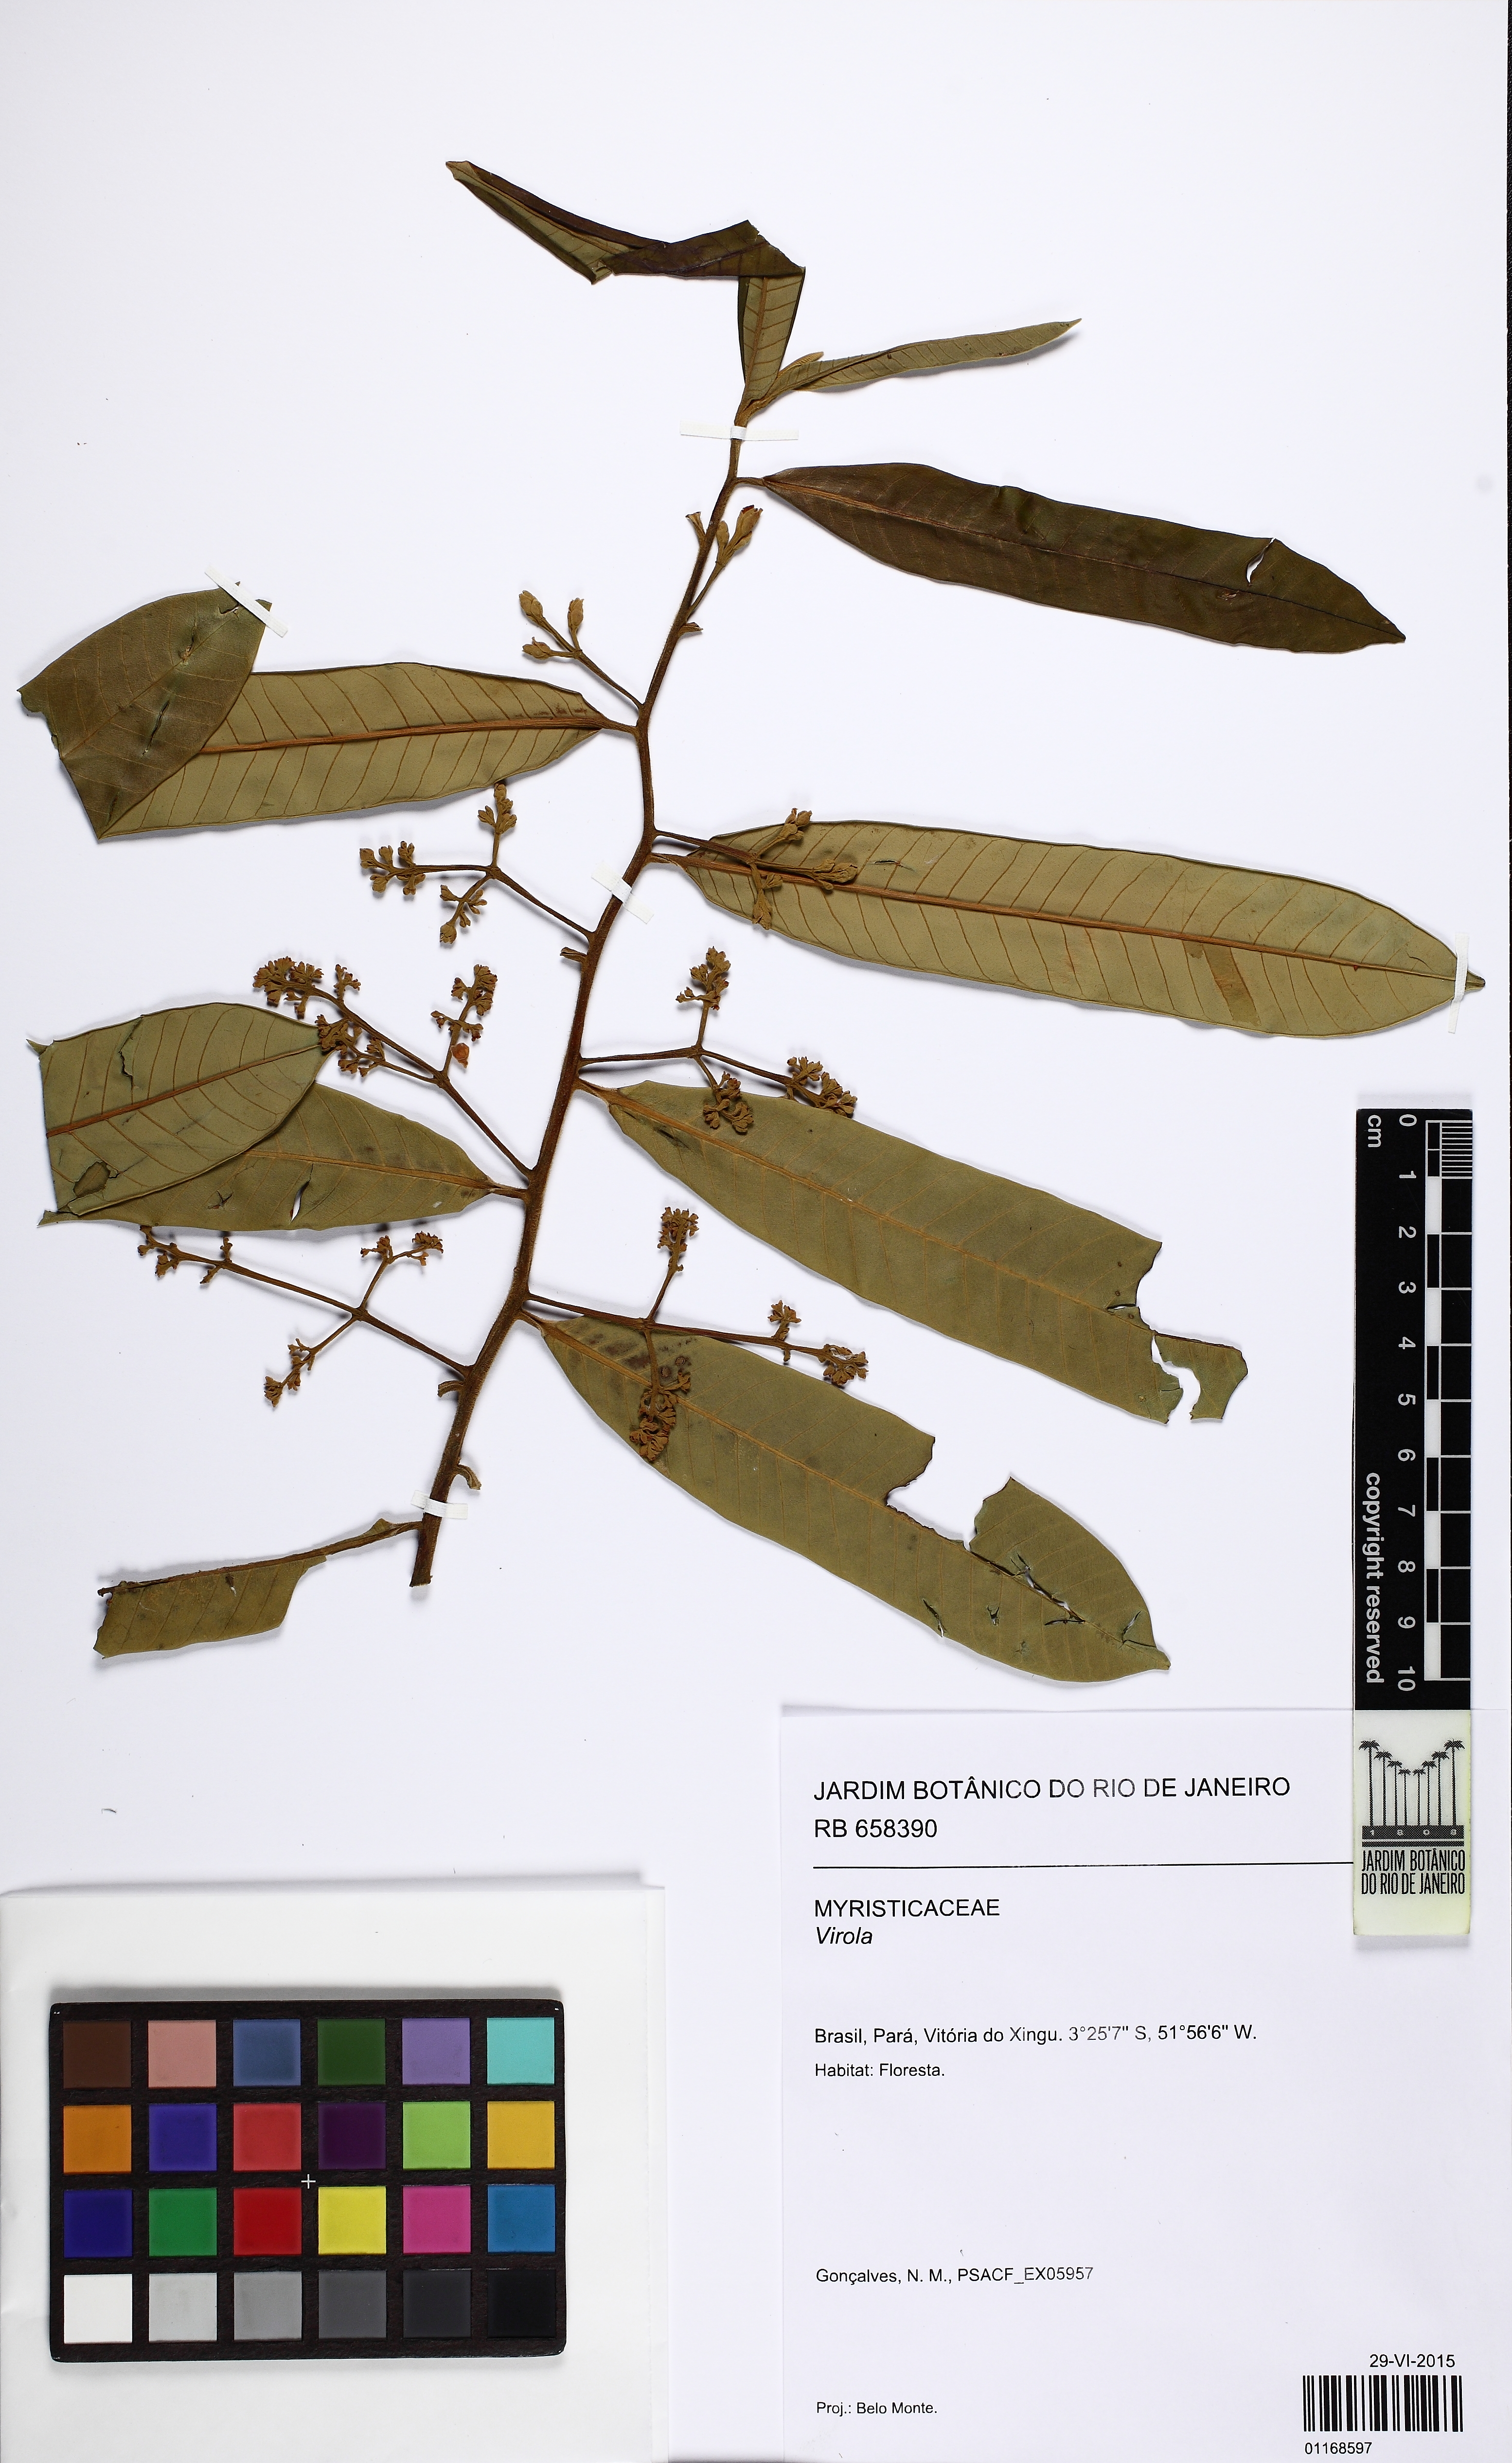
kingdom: Plantae
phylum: Tracheophyta
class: Magnoliopsida
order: Magnoliales
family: Myristicaceae
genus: Virola
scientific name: Virola
